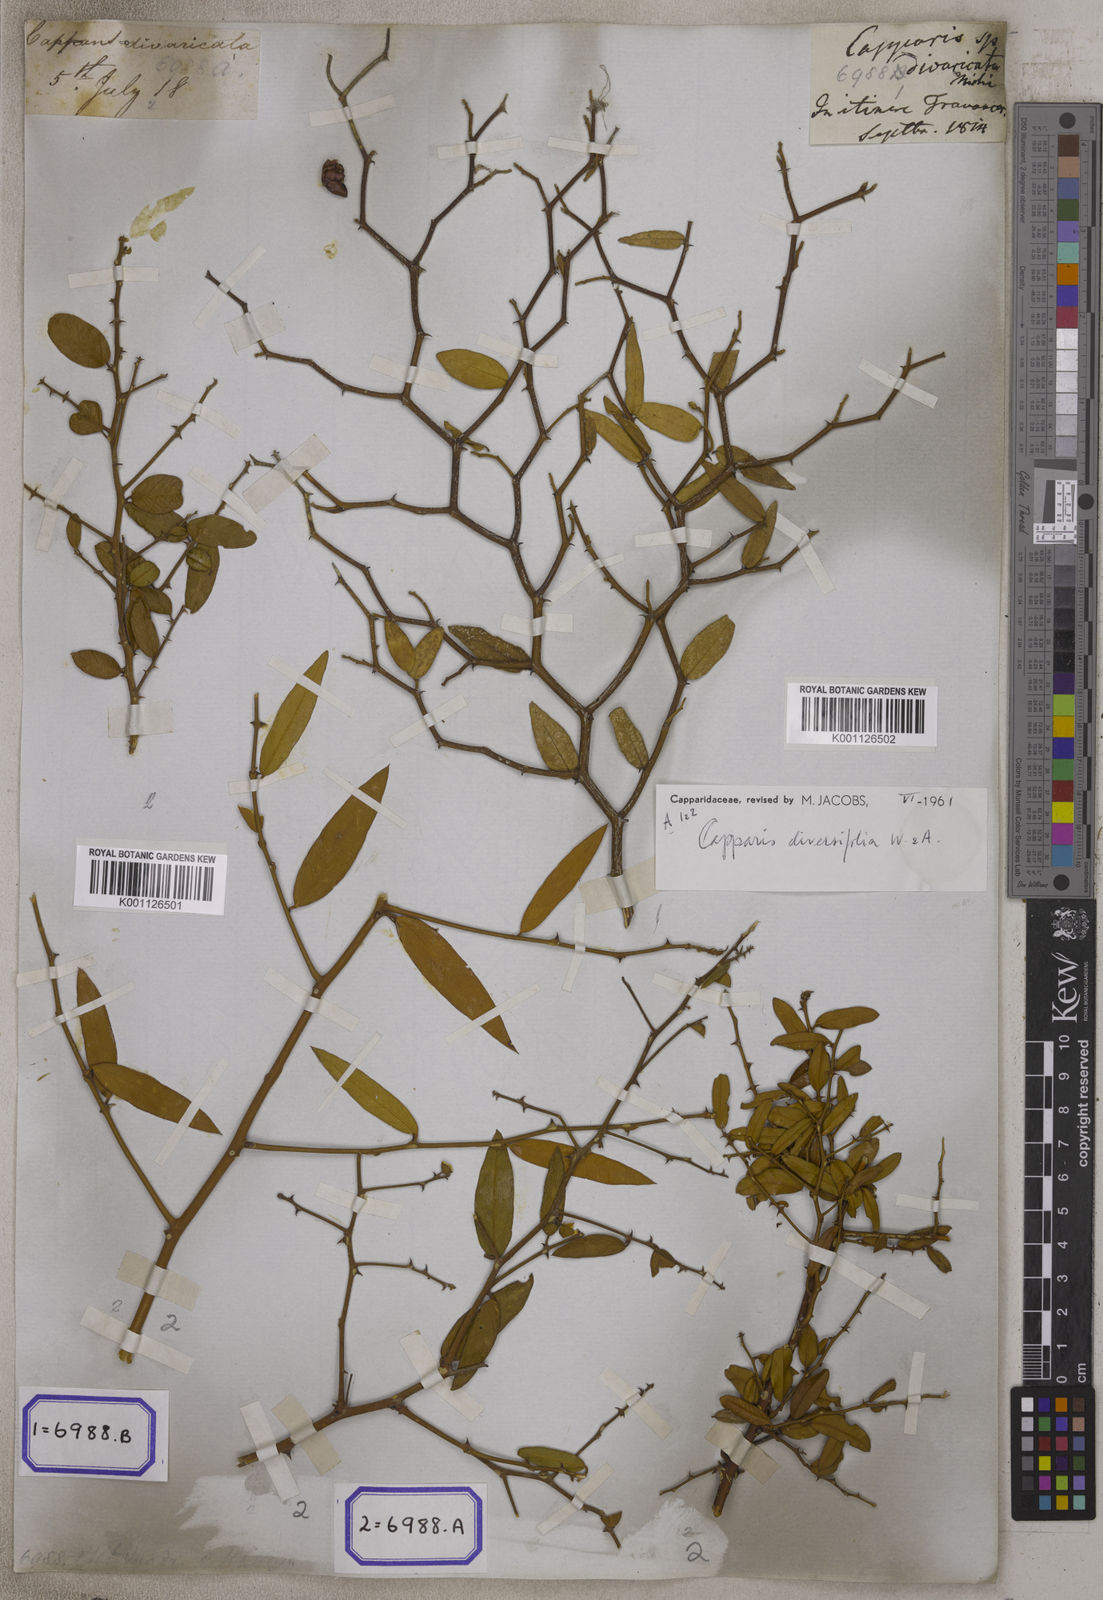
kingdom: Plantae
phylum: Tracheophyta
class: Magnoliopsida
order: Brassicales
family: Capparaceae
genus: Capparis
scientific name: Capparis divaricata
